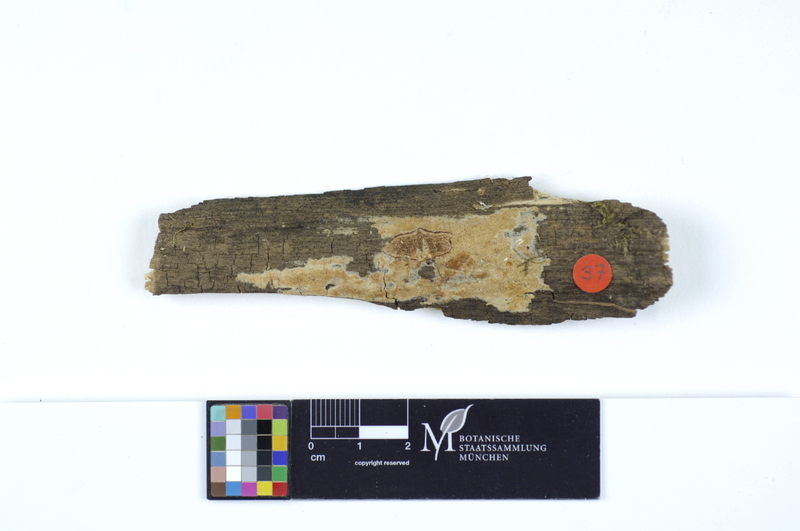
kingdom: Plantae
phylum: Tracheophyta
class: Magnoliopsida
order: Lamiales
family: Oleaceae
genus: Fraxinus
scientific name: Fraxinus
